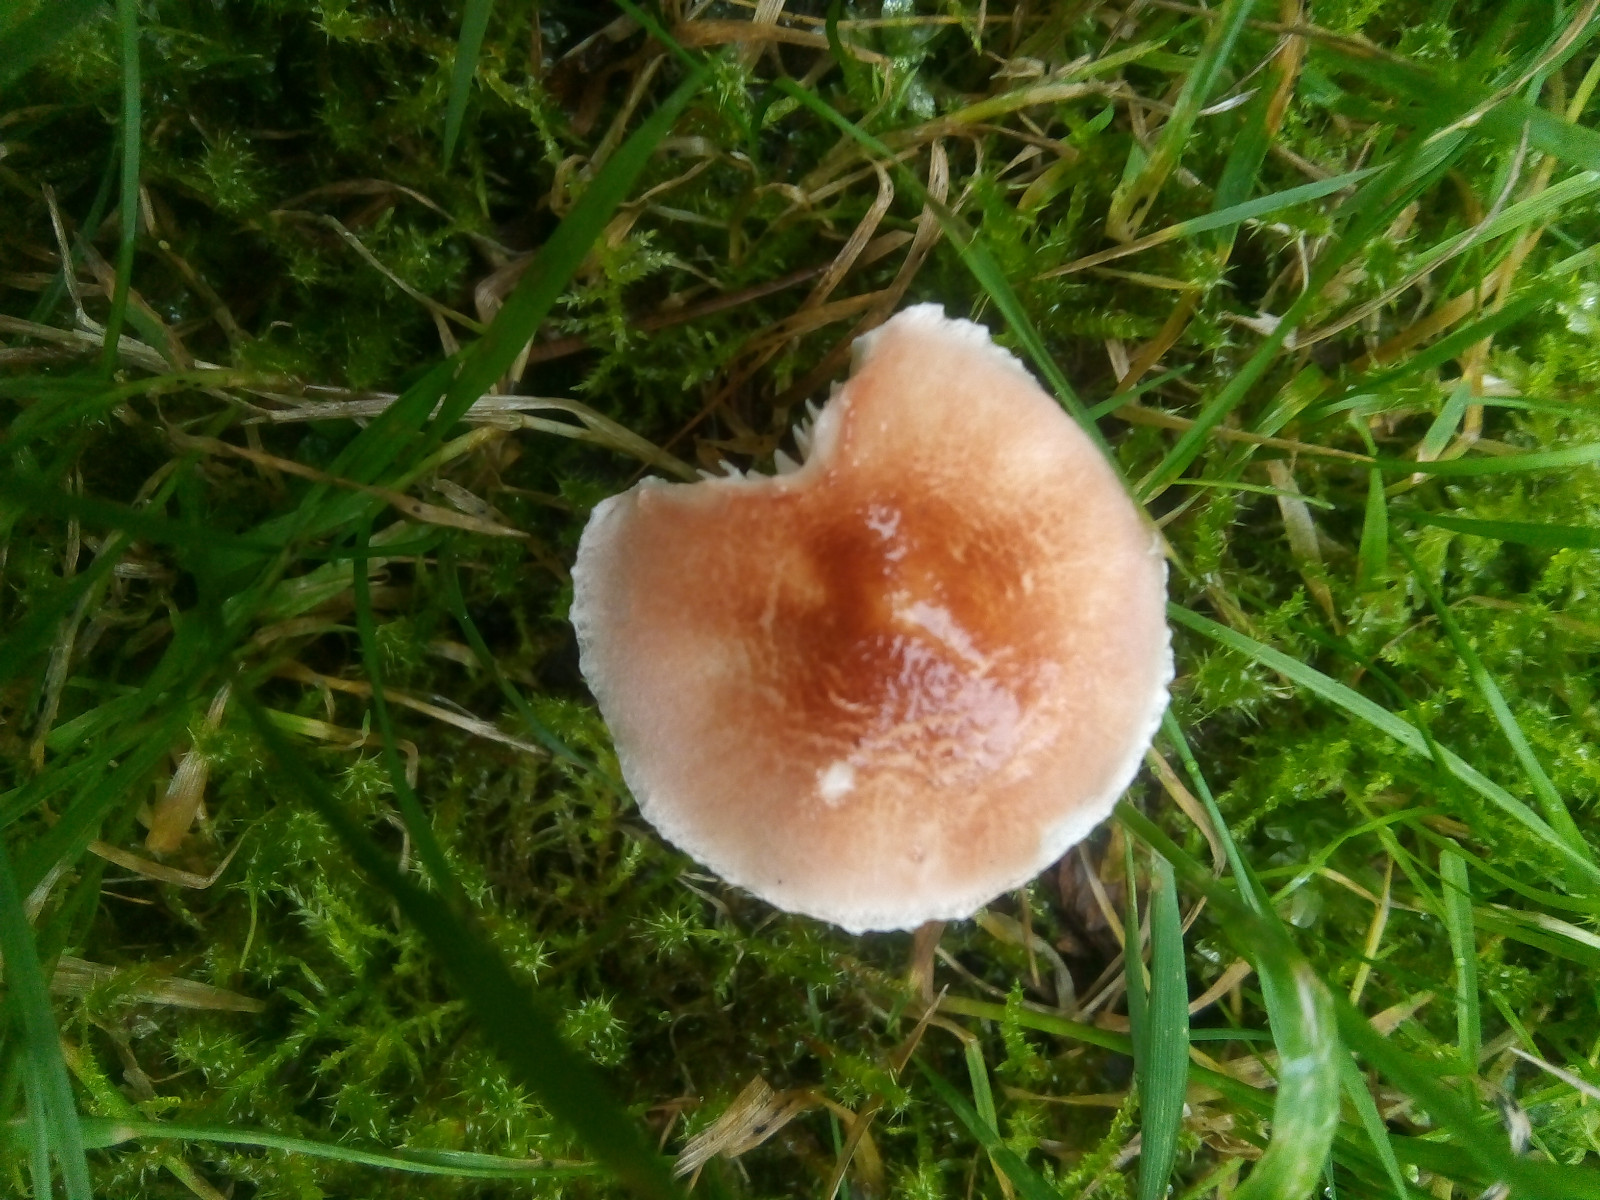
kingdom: Fungi
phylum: Basidiomycota
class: Agaricomycetes
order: Agaricales
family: Agaricaceae
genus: Lepiota
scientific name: Lepiota subincarnata
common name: kødfarvet parasolhat
